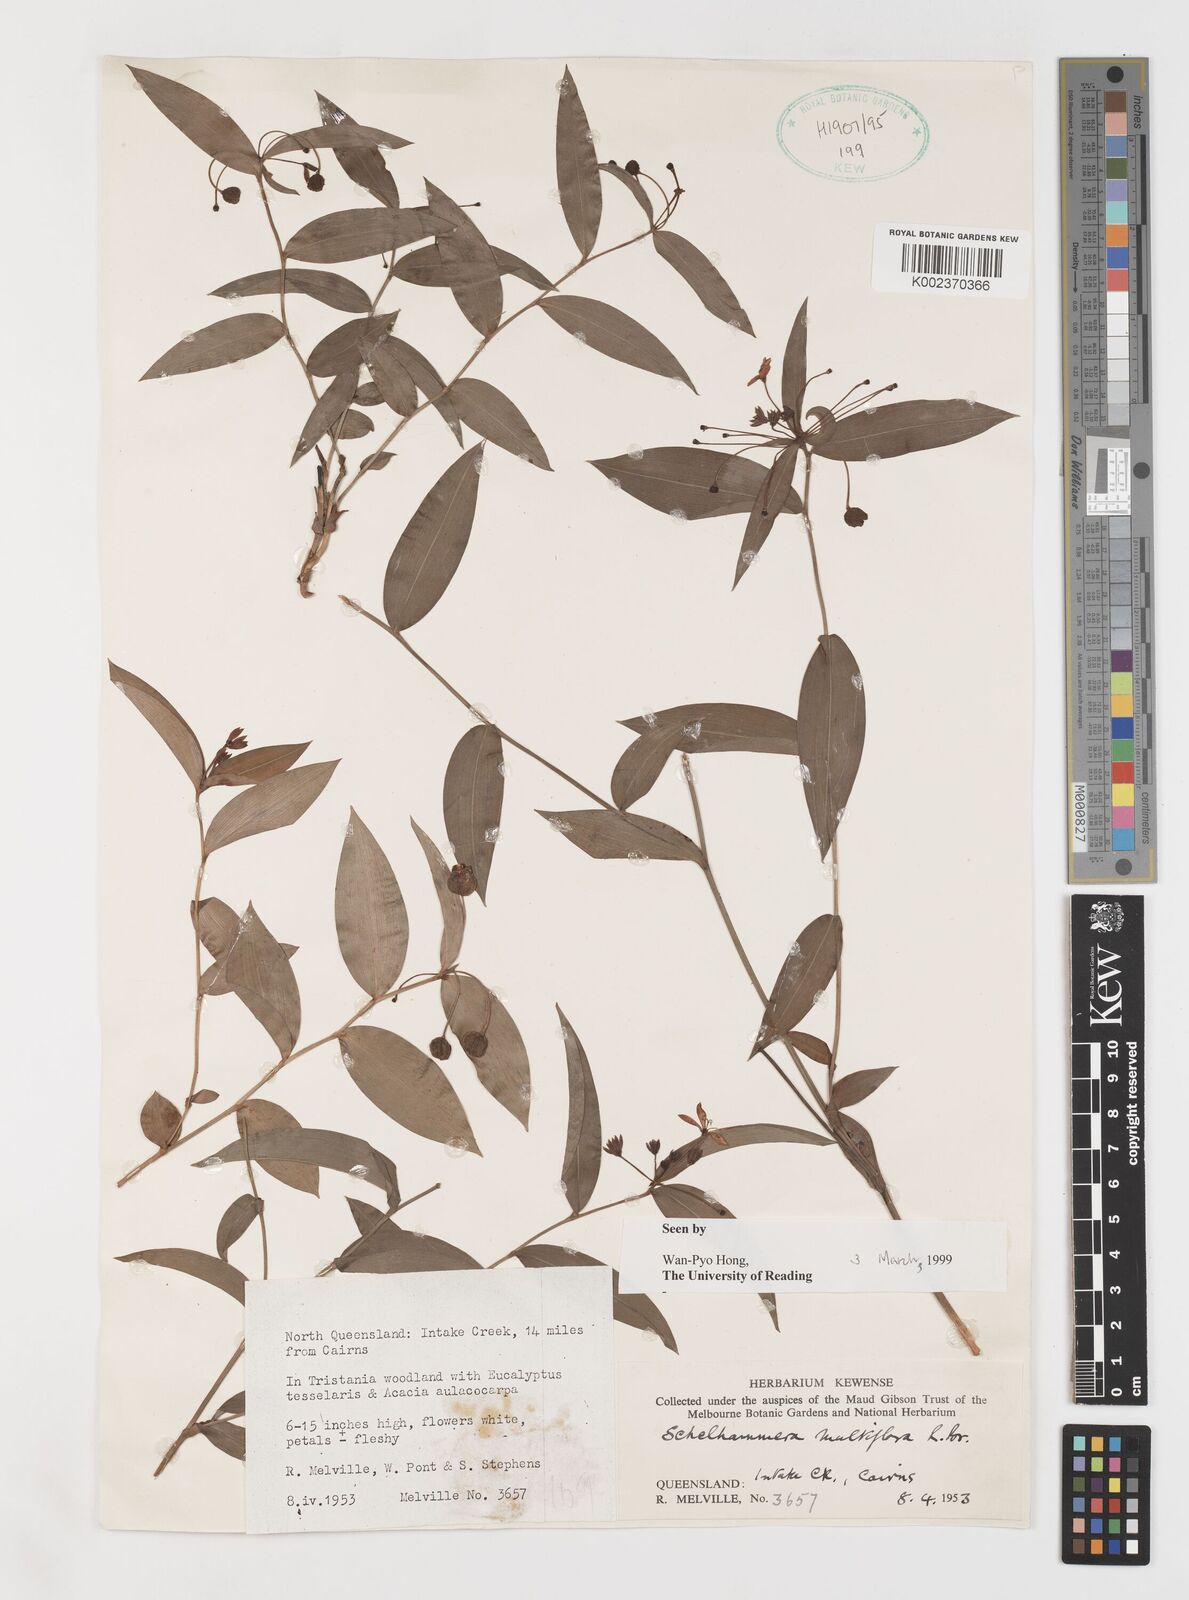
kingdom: Plantae
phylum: Tracheophyta
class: Liliopsida
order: Liliales
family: Colchicaceae
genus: Schelhammera
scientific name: Schelhammera multiflora
